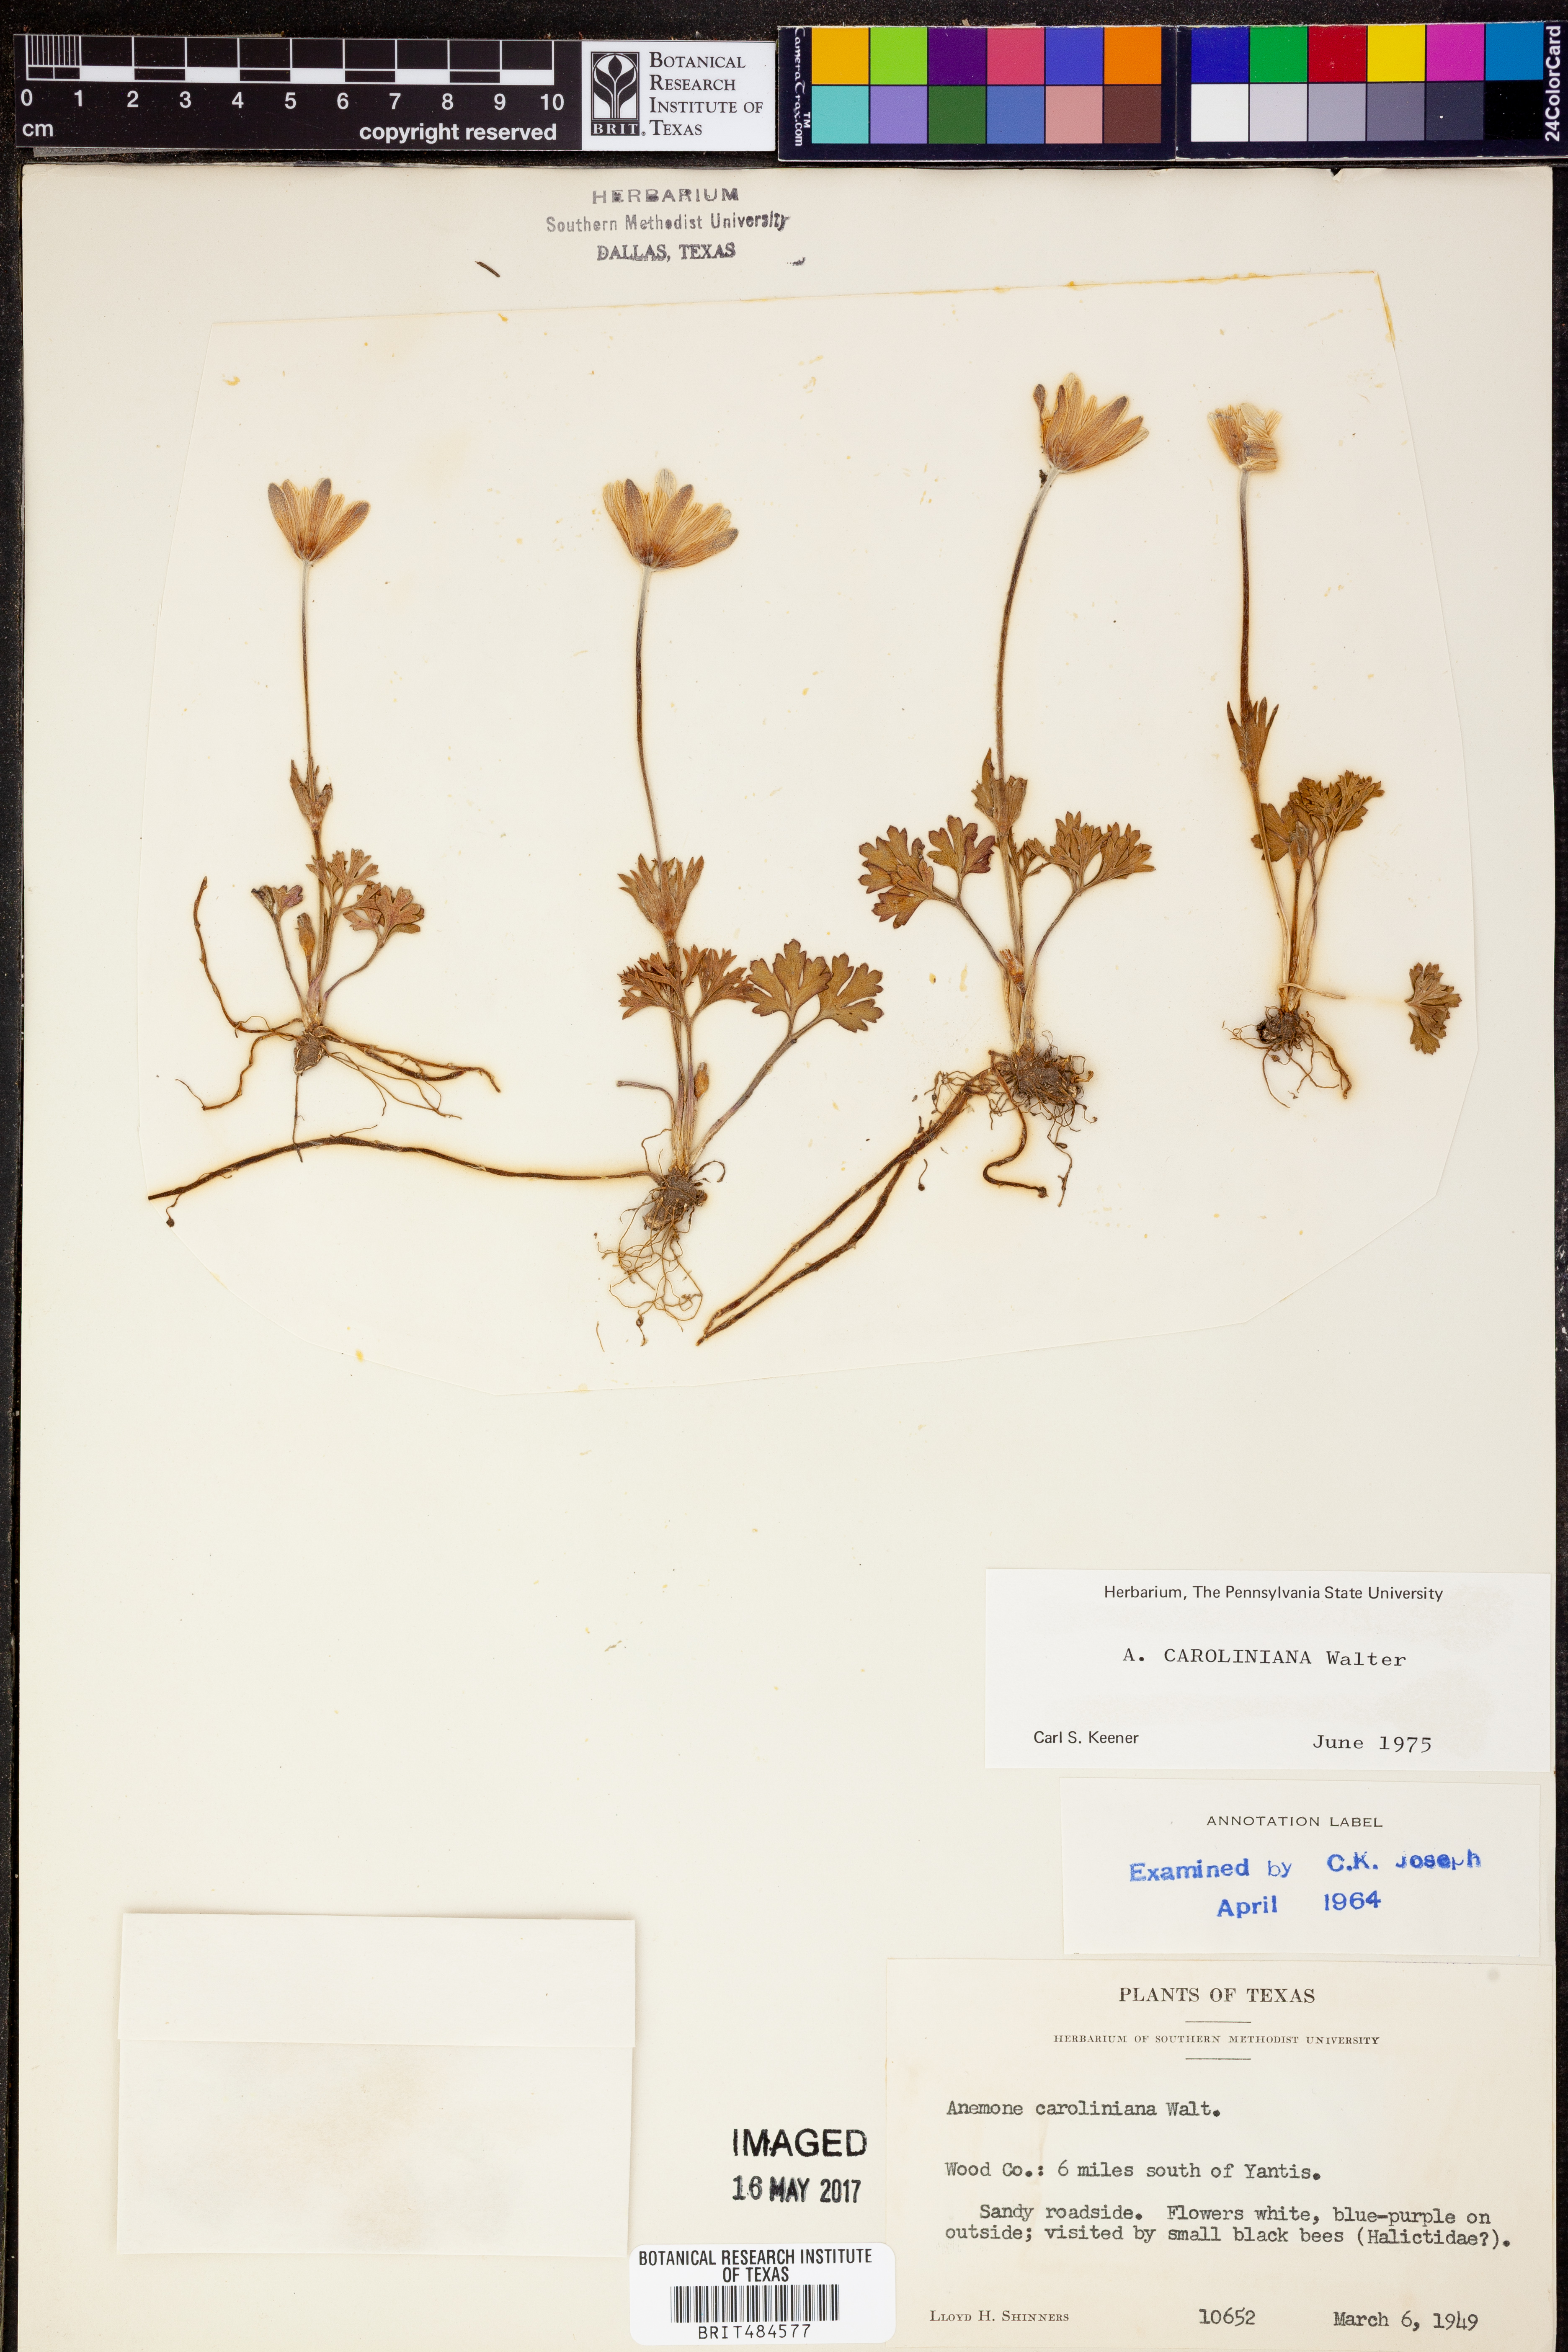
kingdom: Plantae
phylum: Tracheophyta
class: Magnoliopsida
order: Ranunculales
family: Ranunculaceae
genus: Anemone
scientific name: Anemone caroliniana
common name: Carolina anemone
